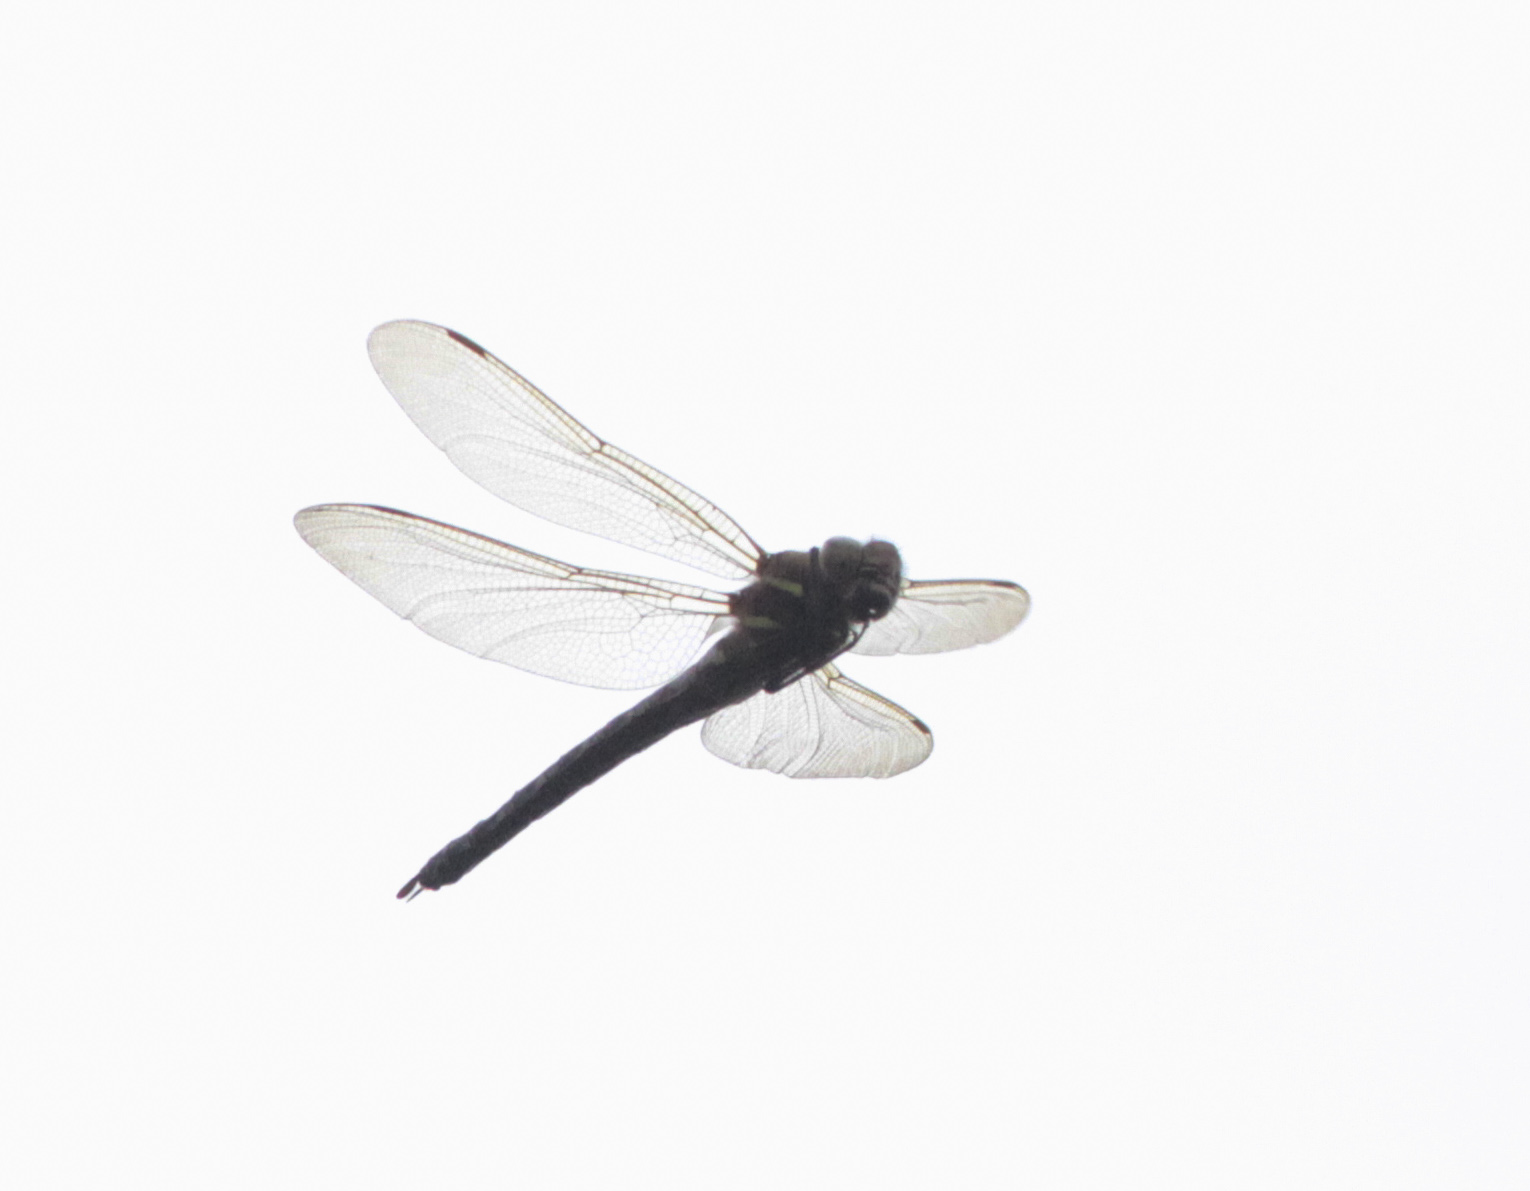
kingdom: Animalia
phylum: Arthropoda
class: Insecta
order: Odonata
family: Aeshnidae
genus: Aeshna
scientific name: Aeshna grandis
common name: Brown hawker
